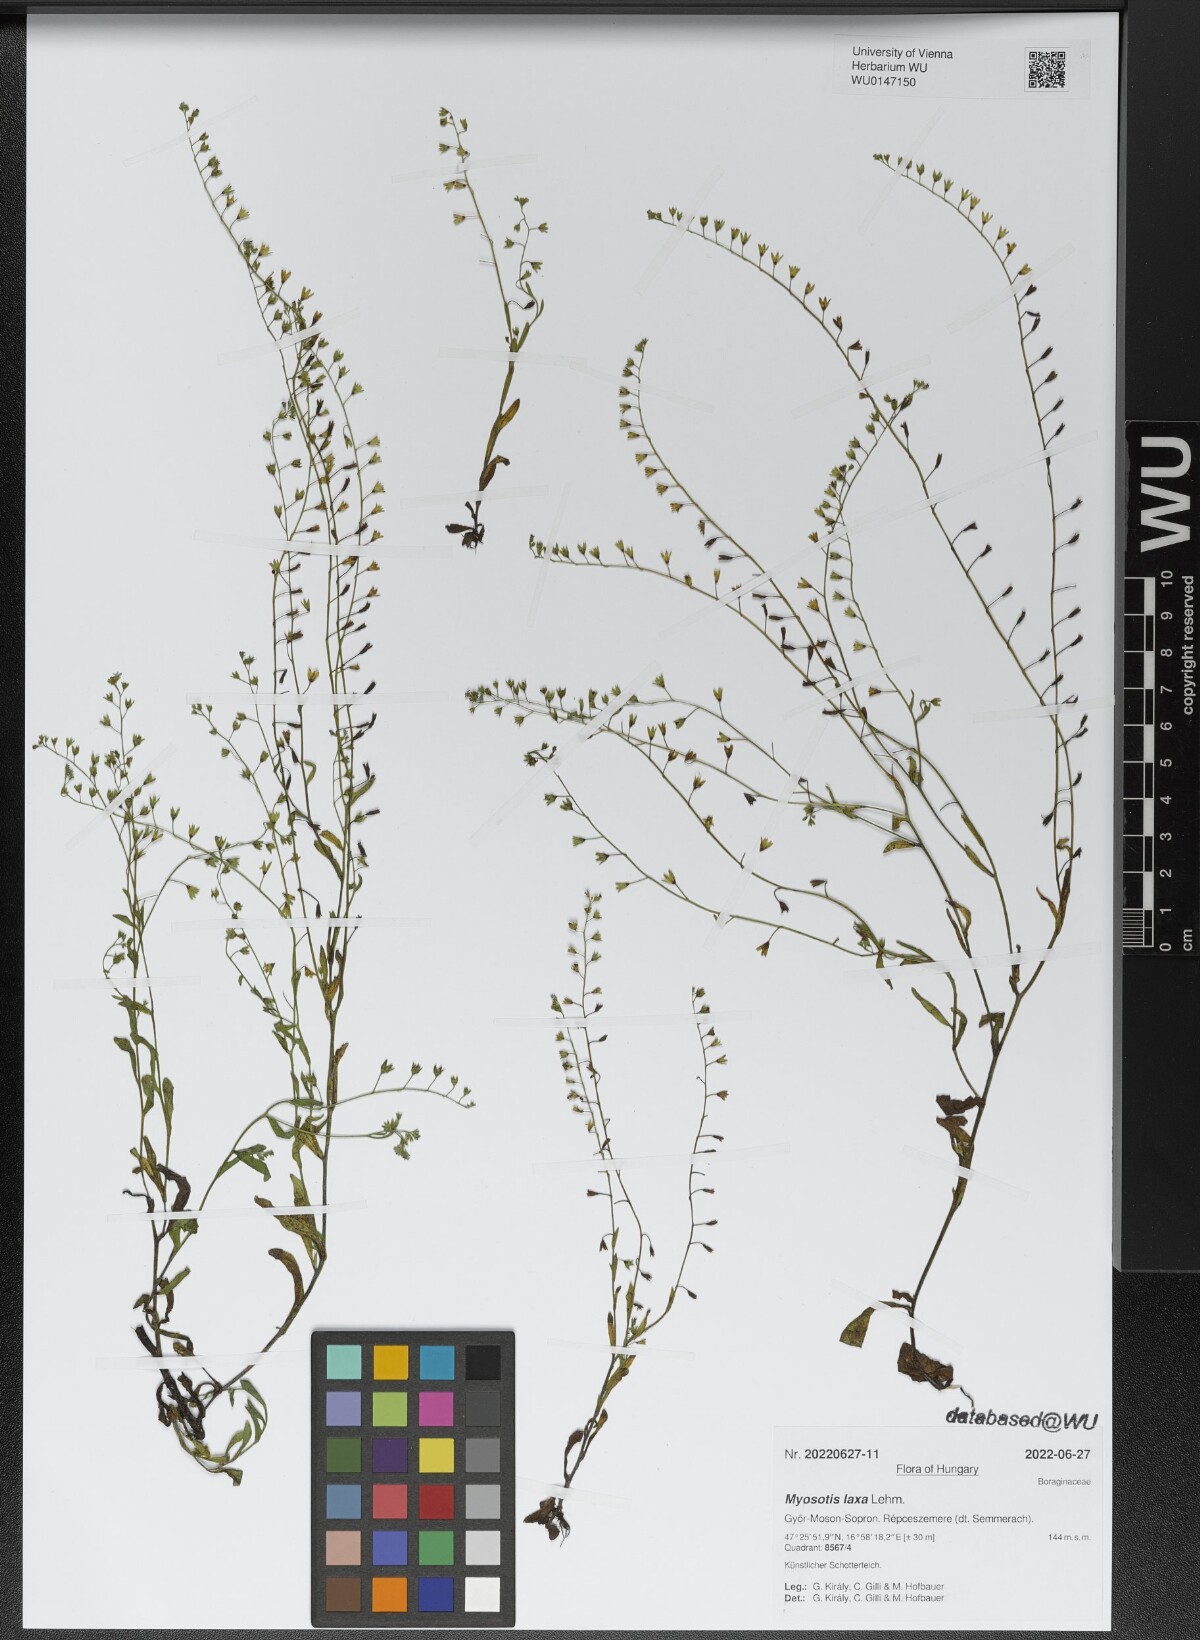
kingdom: Plantae
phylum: Tracheophyta
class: Magnoliopsida
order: Boraginales
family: Boraginaceae
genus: Myosotis
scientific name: Myosotis laxa
